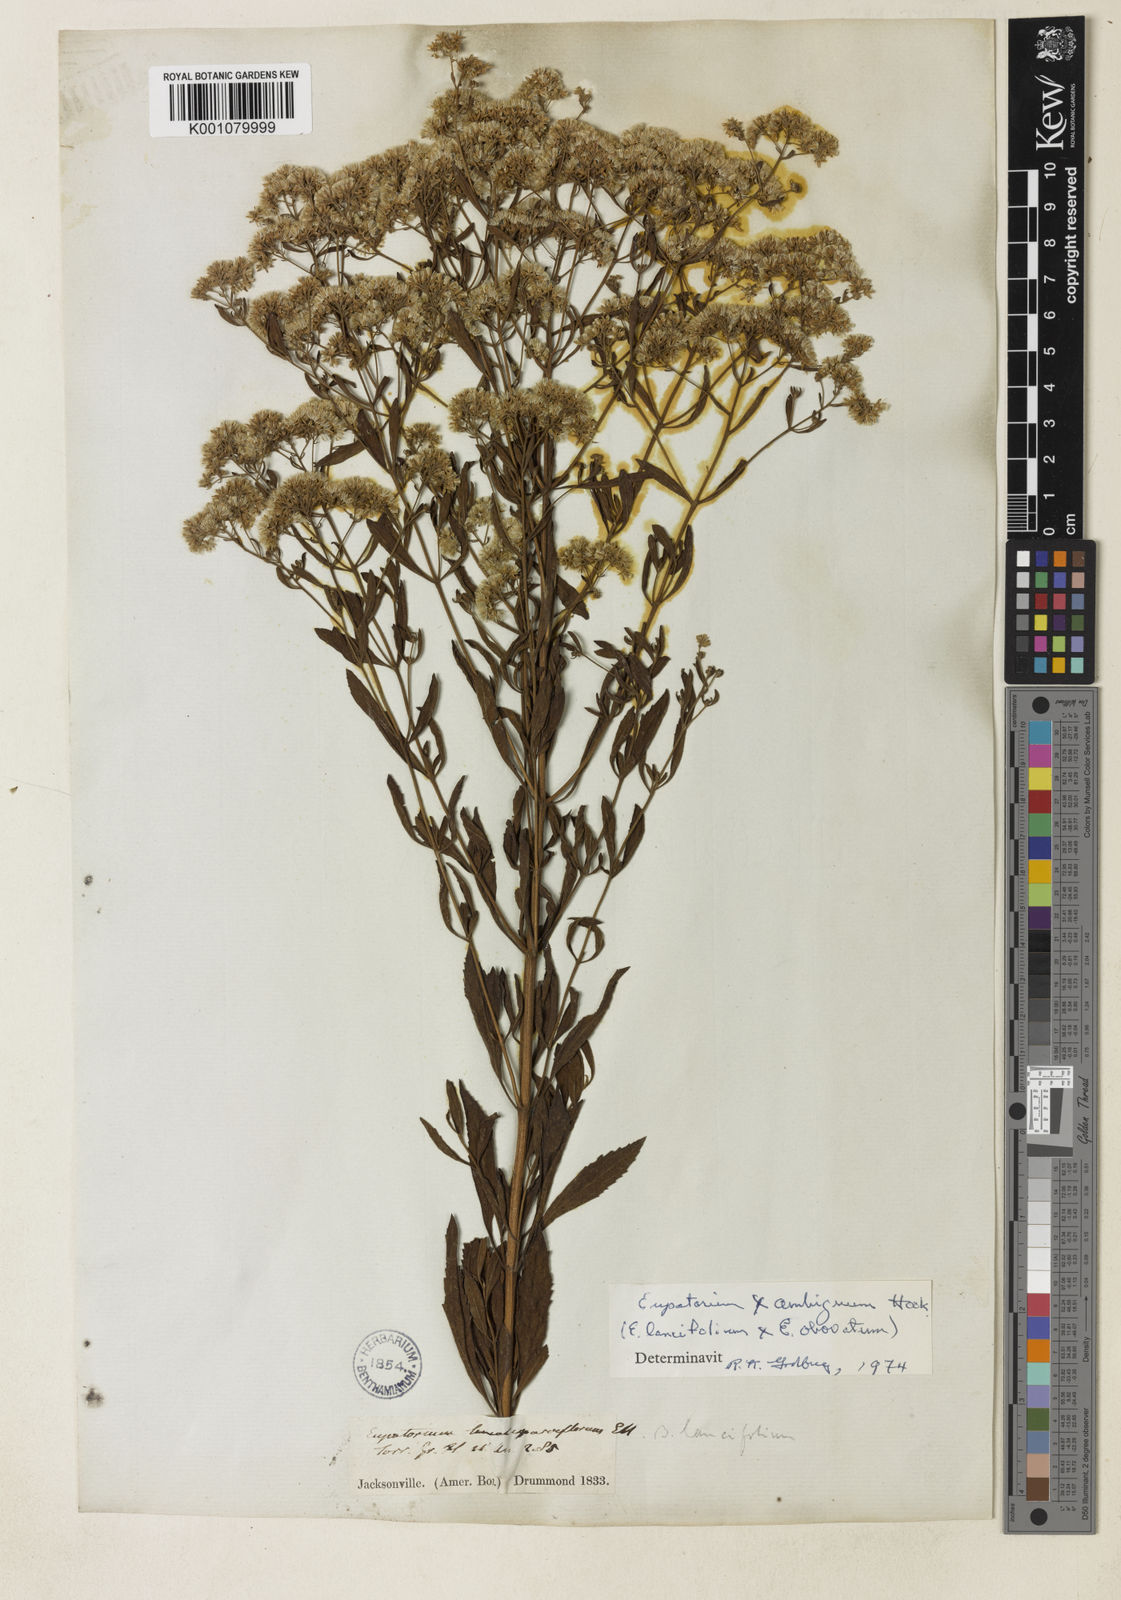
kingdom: Plantae
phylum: Tracheophyta
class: Magnoliopsida
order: Asterales
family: Asteraceae
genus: Eupatorium
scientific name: Eupatorium lancifolium
